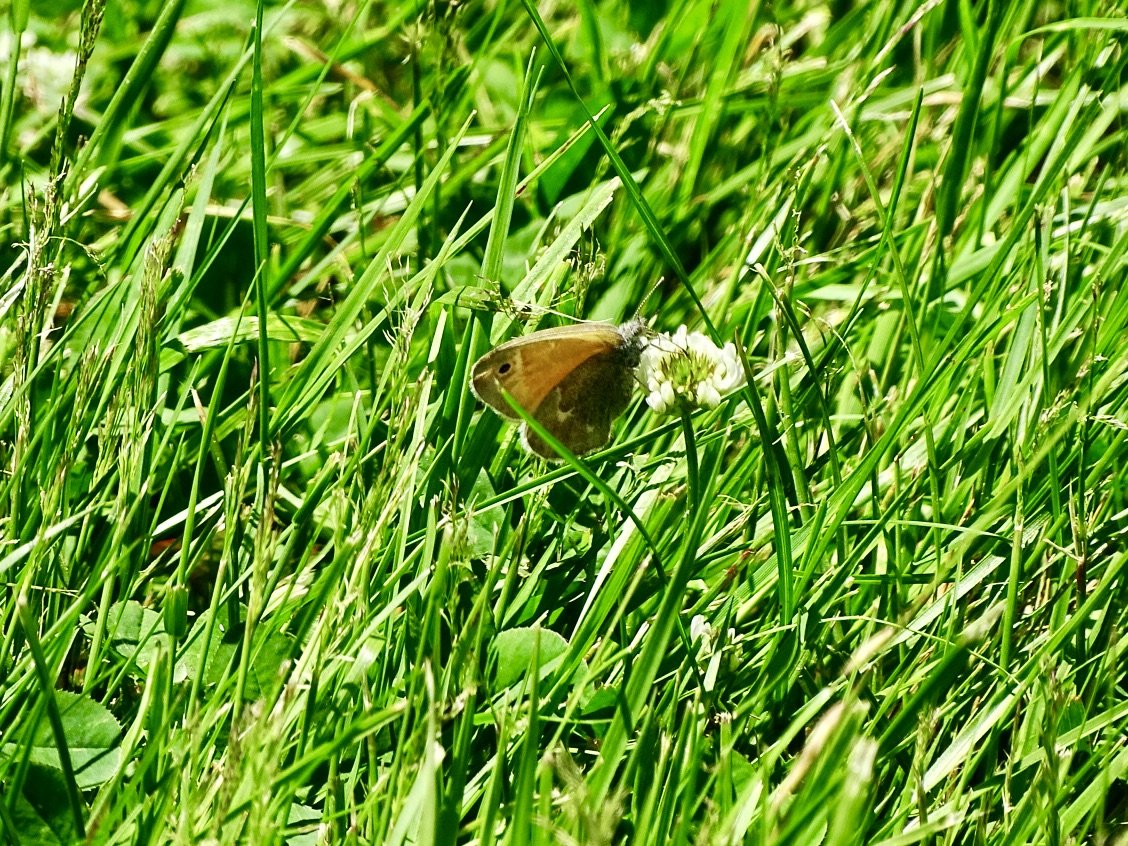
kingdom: Animalia
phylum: Arthropoda
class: Insecta
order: Lepidoptera
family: Nymphalidae
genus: Coenonympha
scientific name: Coenonympha tullia
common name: Large Heath
